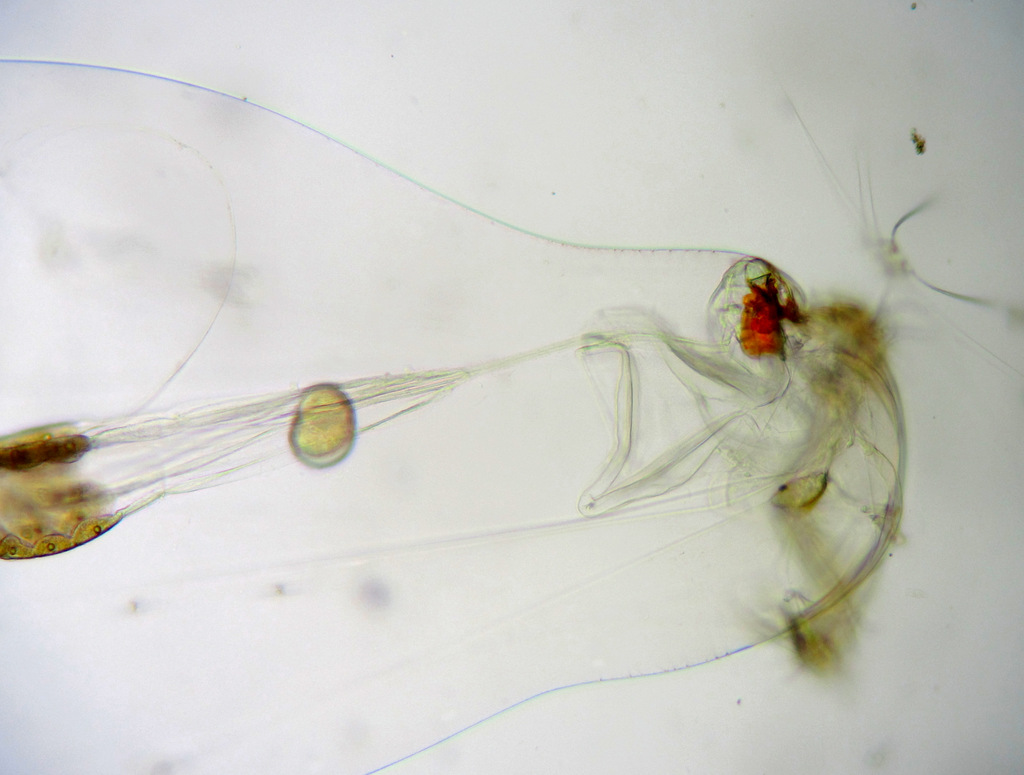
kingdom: Animalia
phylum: Rotifera
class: Eurotatoria
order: Ploima
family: Asplanchnidae
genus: Asplanchna
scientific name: Asplanchna priodonta
